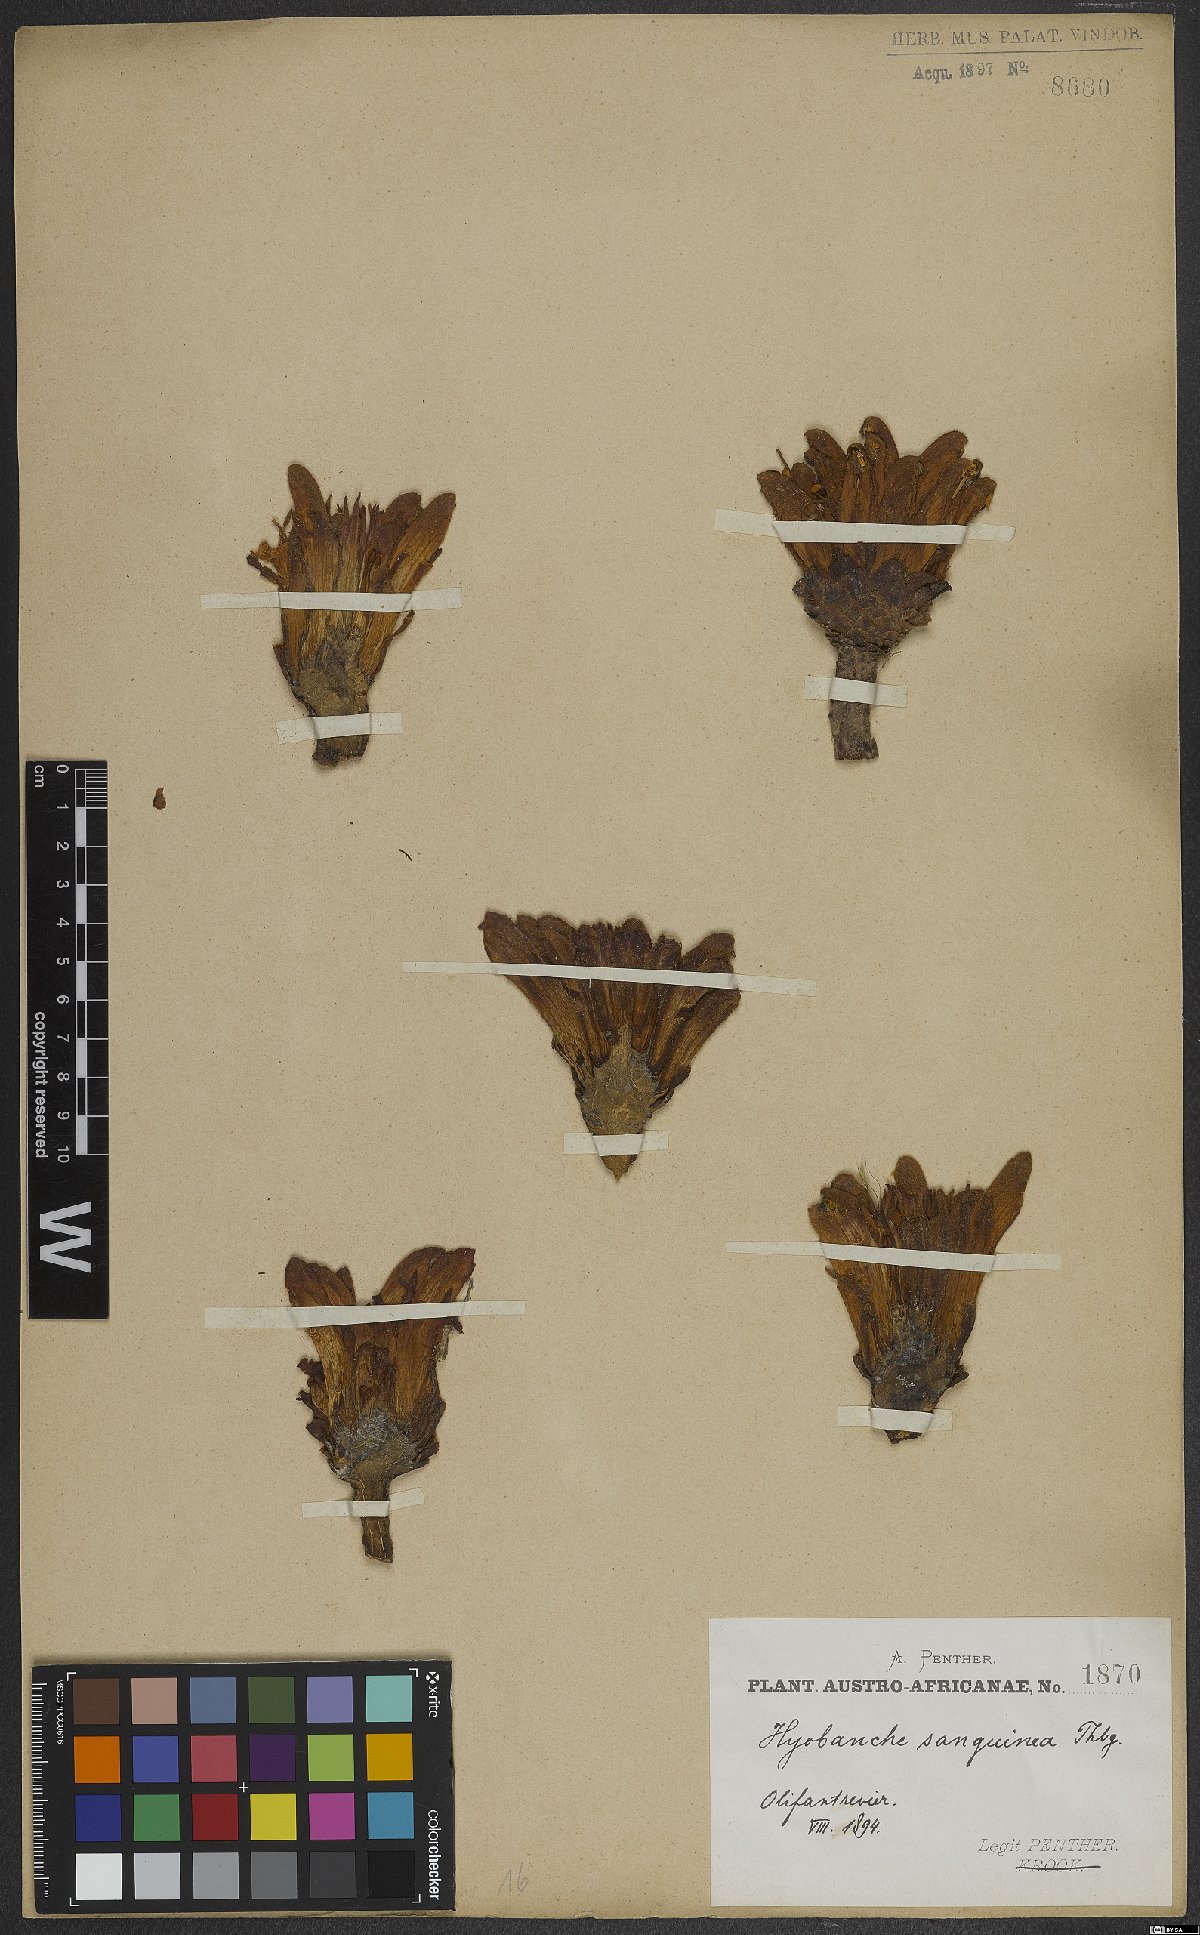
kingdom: Plantae
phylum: Tracheophyta
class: Magnoliopsida
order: Lamiales
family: Orobanchaceae
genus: Hyobanche
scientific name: Hyobanche sanguinea
